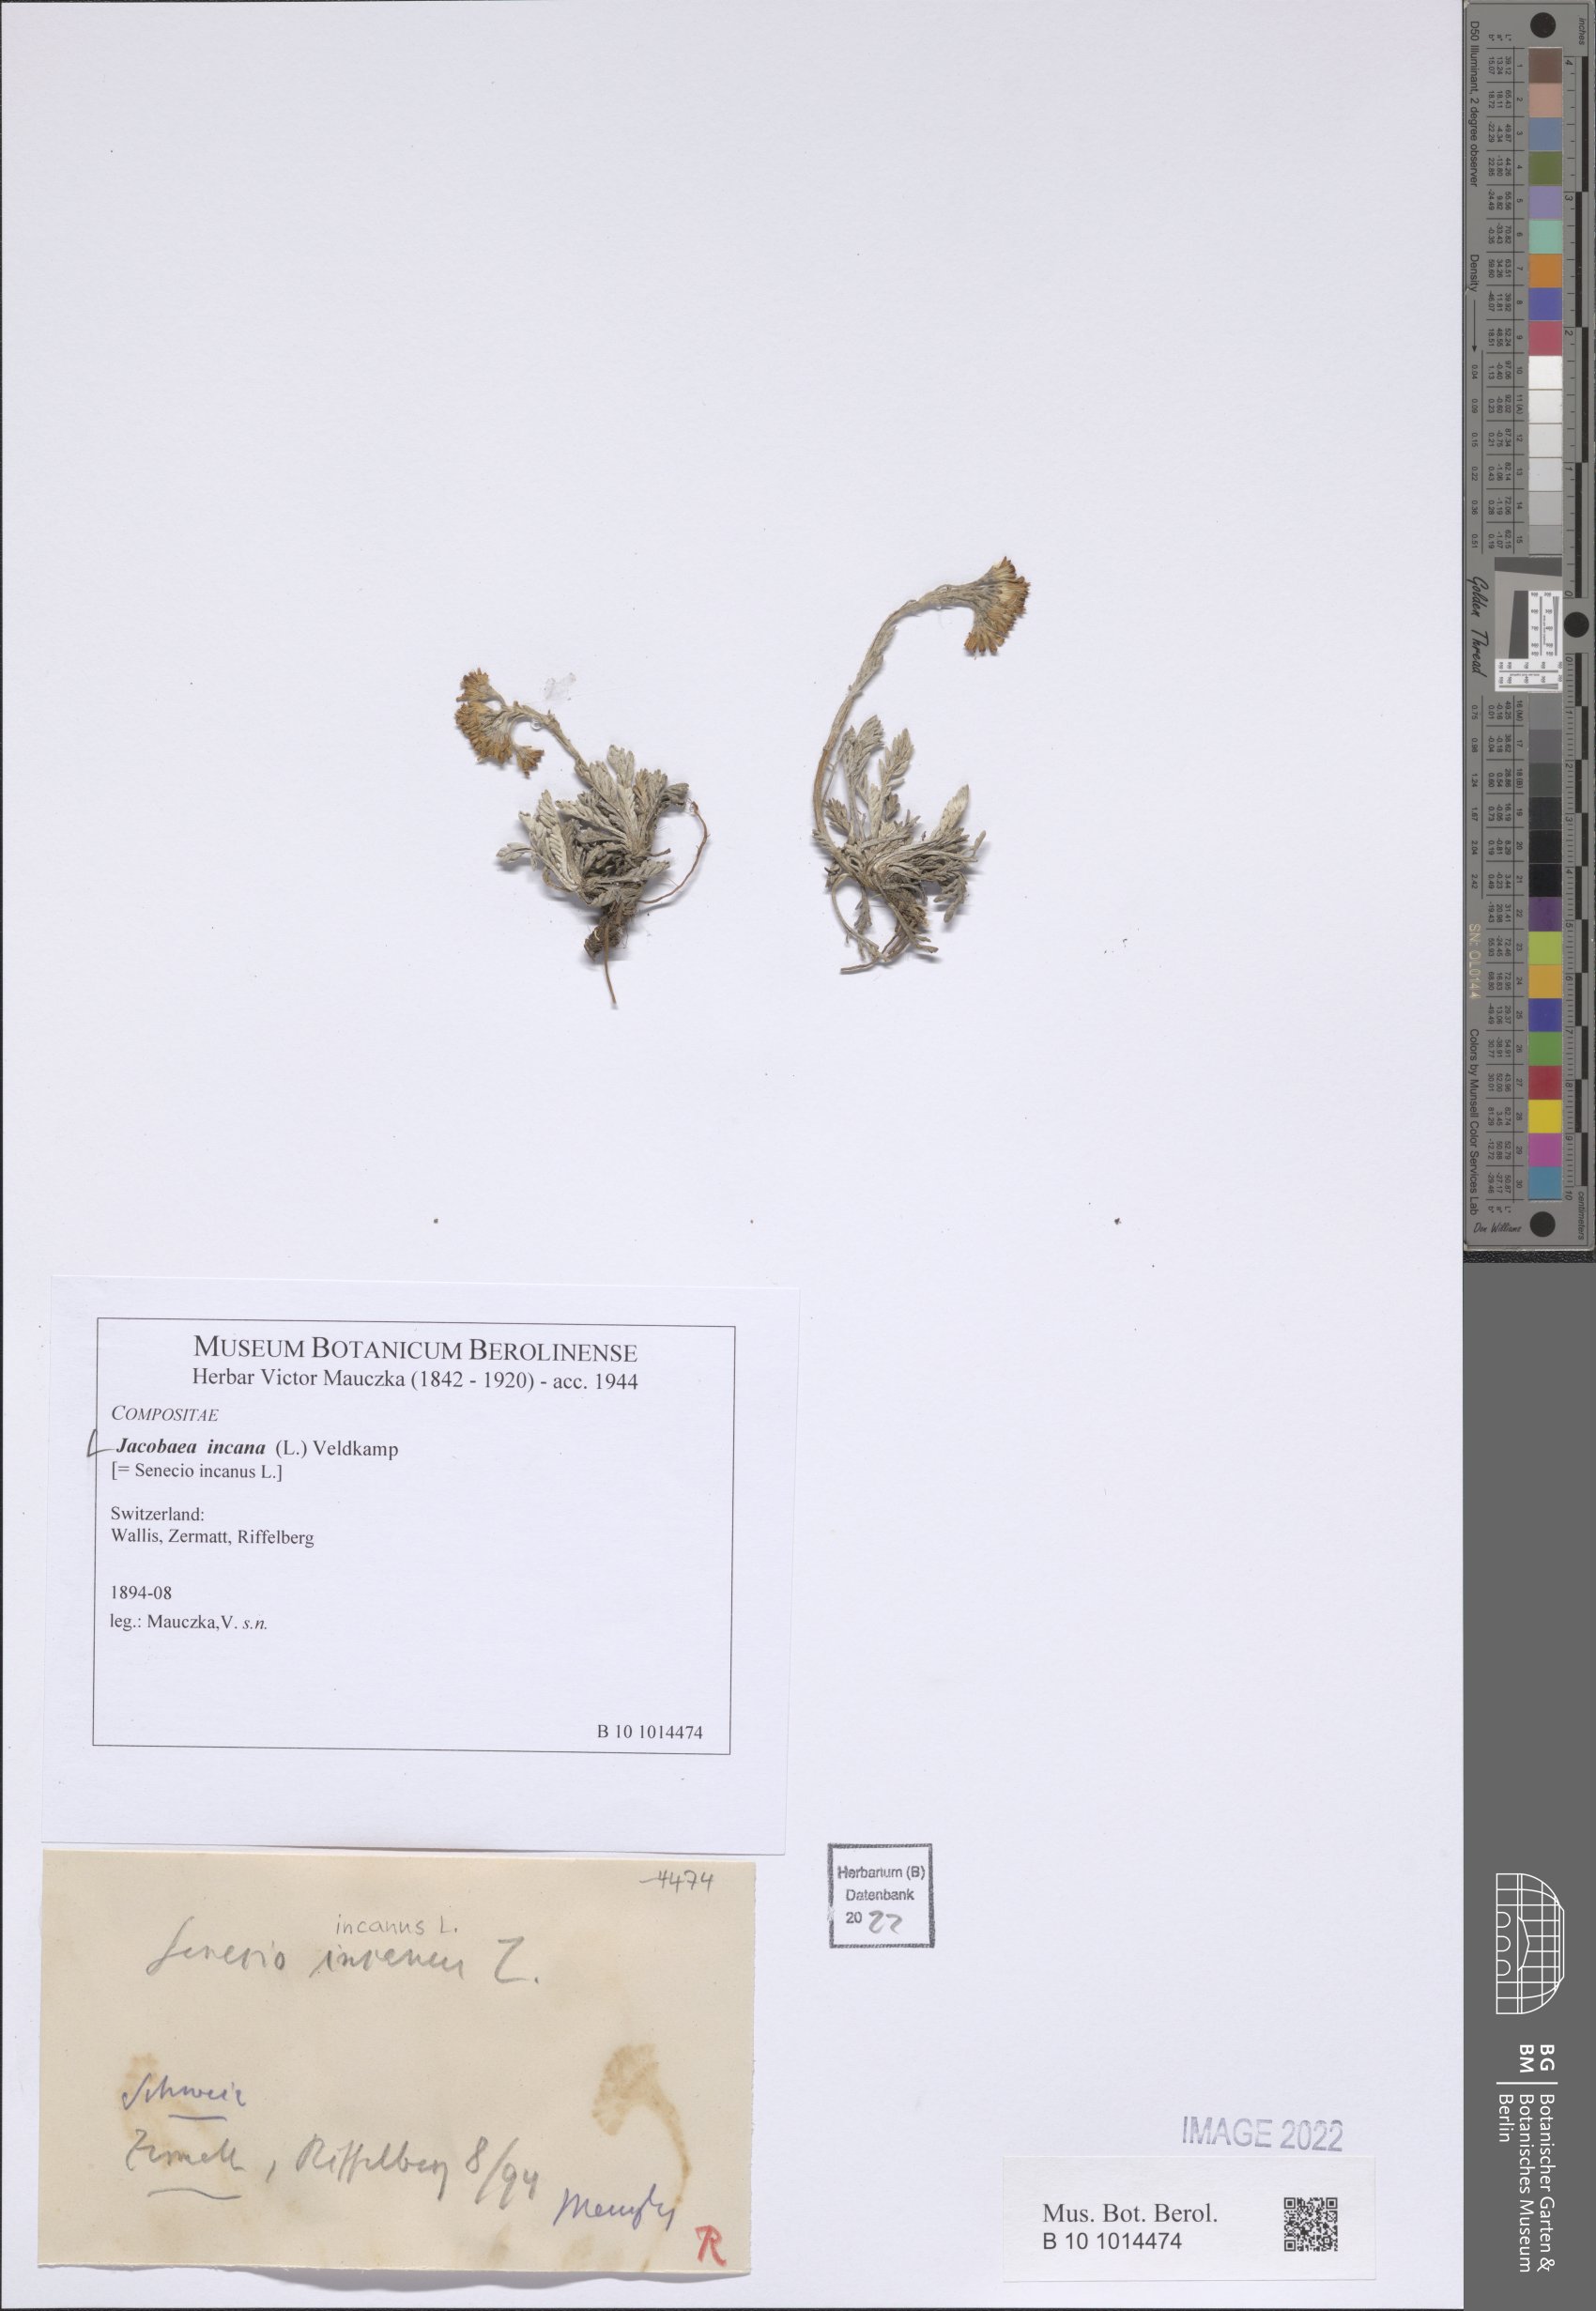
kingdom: Plantae
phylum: Tracheophyta
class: Magnoliopsida
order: Asterales
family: Asteraceae
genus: Jacobaea
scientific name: Jacobaea incana
